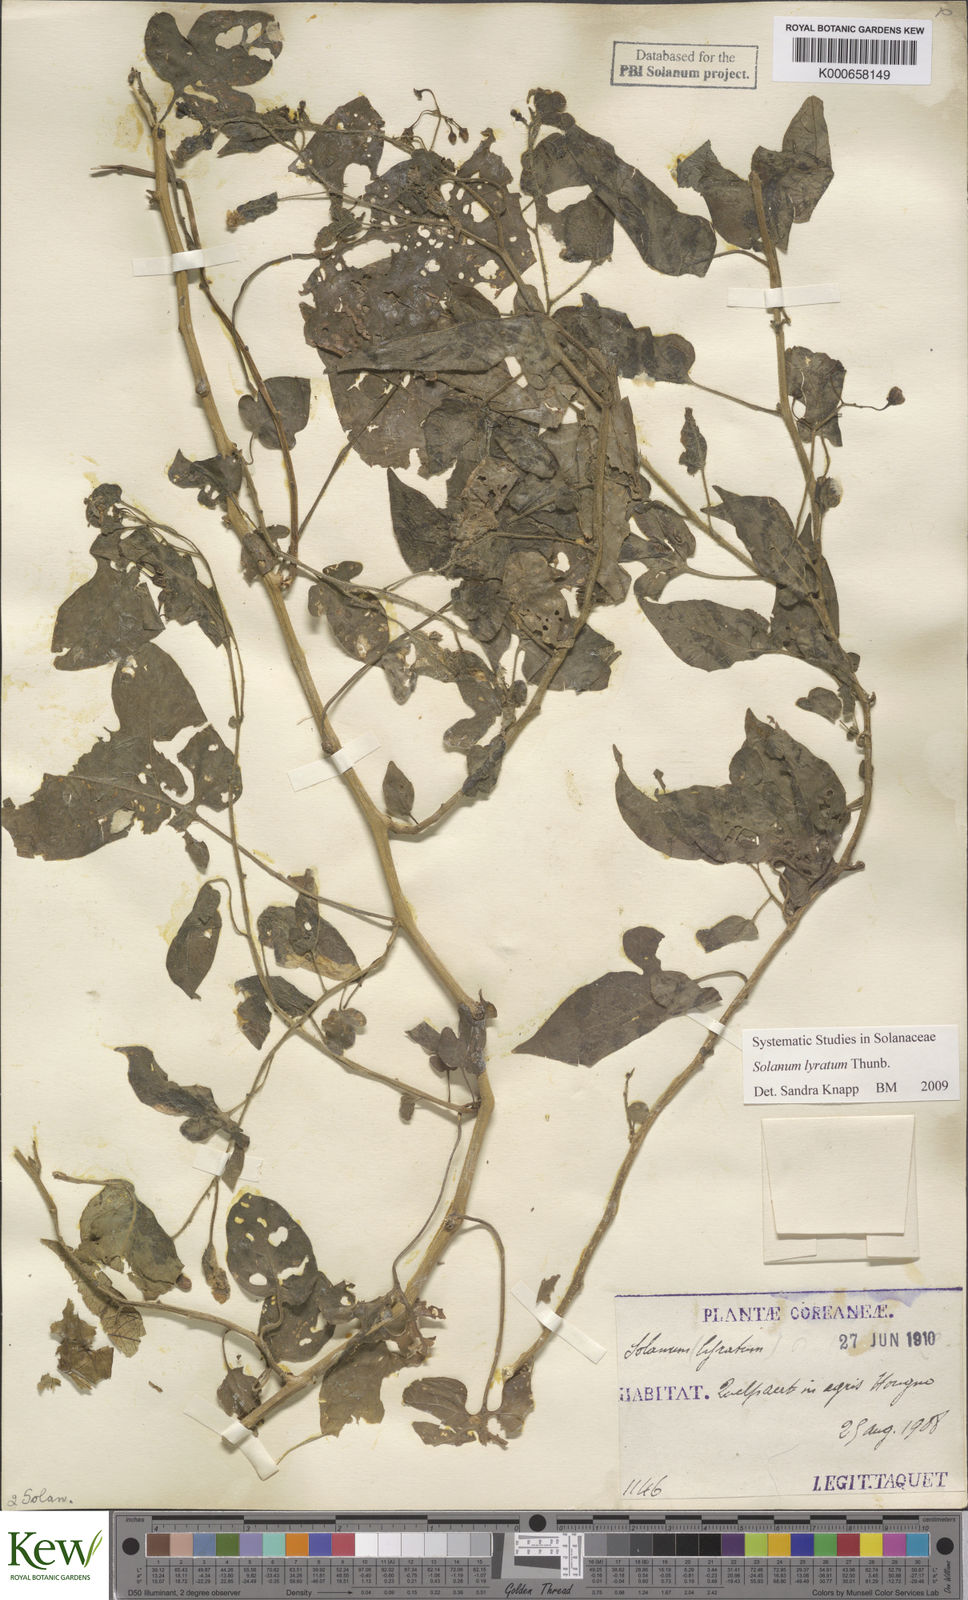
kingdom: Plantae
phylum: Tracheophyta
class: Magnoliopsida
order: Solanales
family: Solanaceae
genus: Solanum
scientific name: Solanum lyratum
